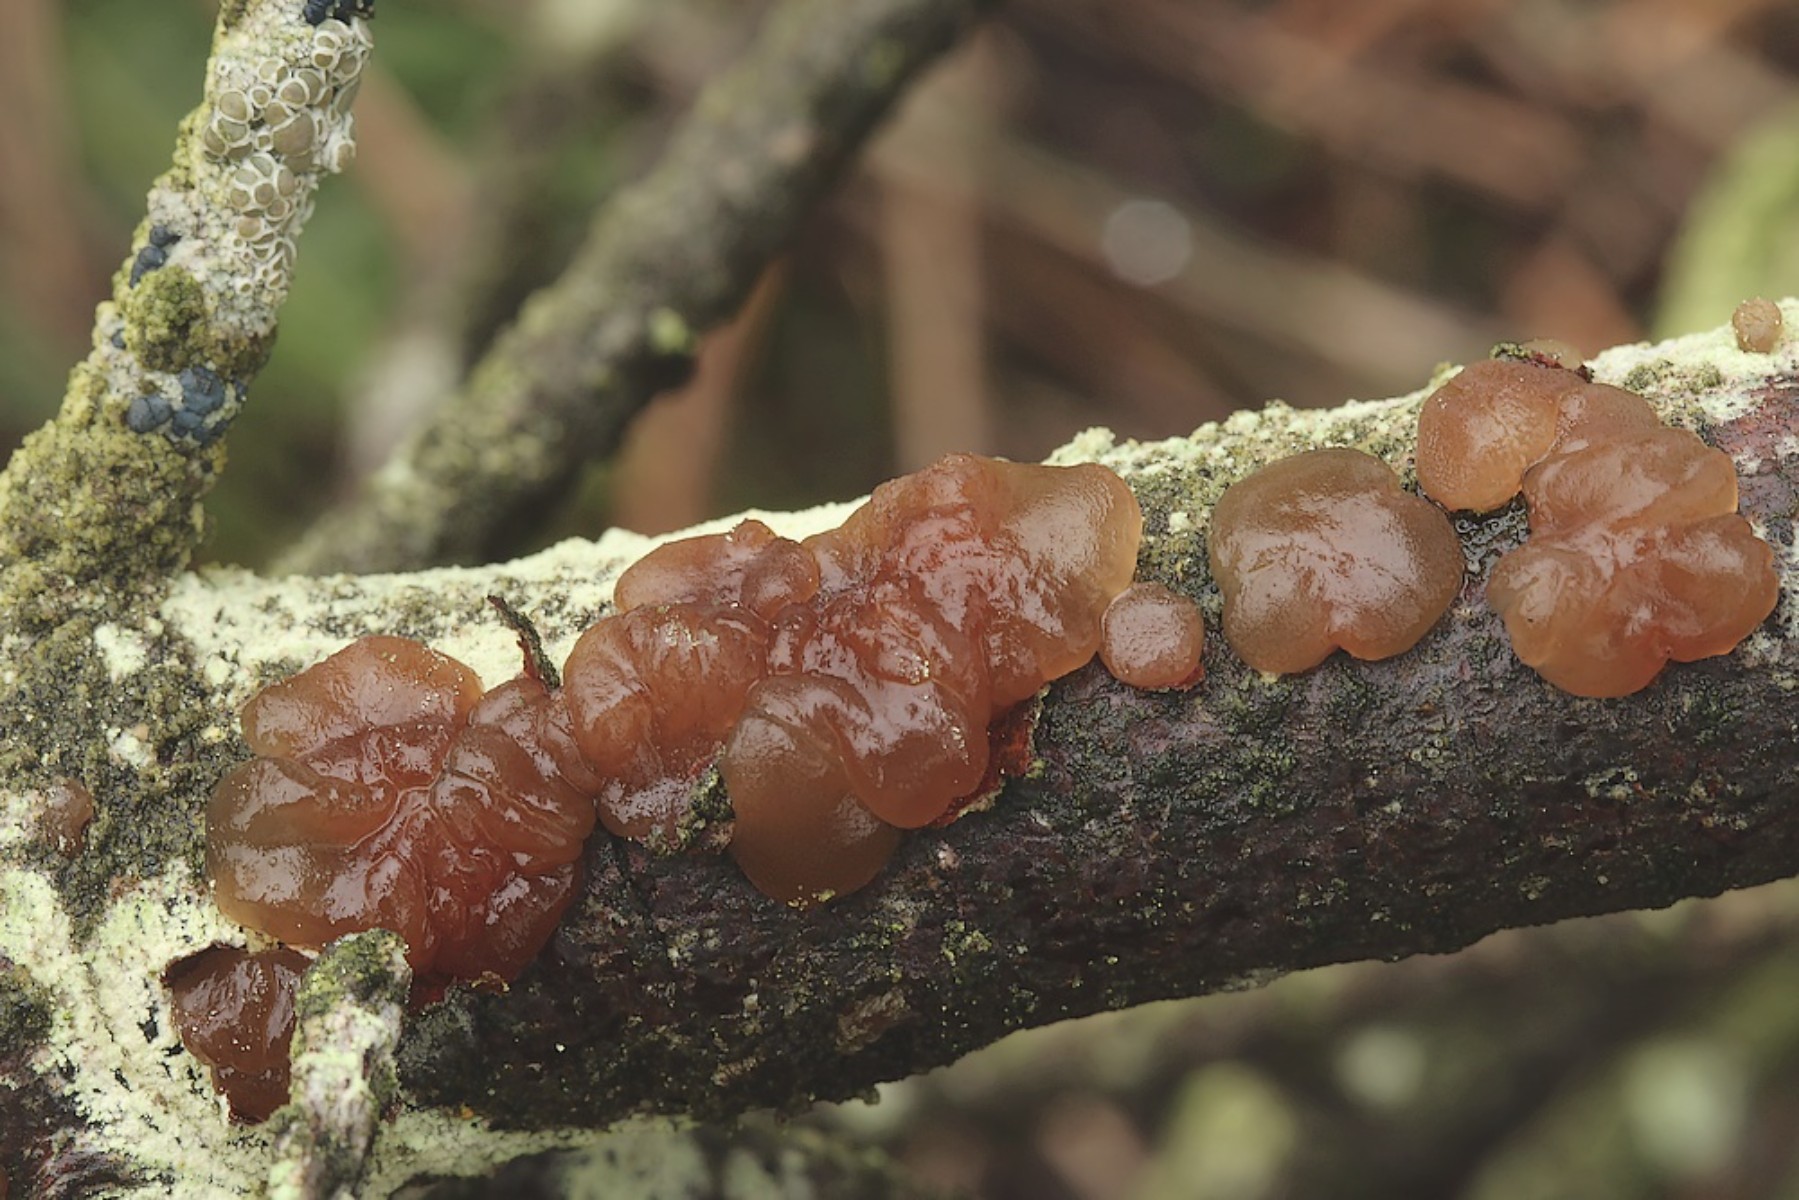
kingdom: Fungi
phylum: Basidiomycota
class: Agaricomycetes
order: Auriculariales
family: Auriculariaceae
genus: Exidia
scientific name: Exidia saccharina
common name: kandis-bævretop
